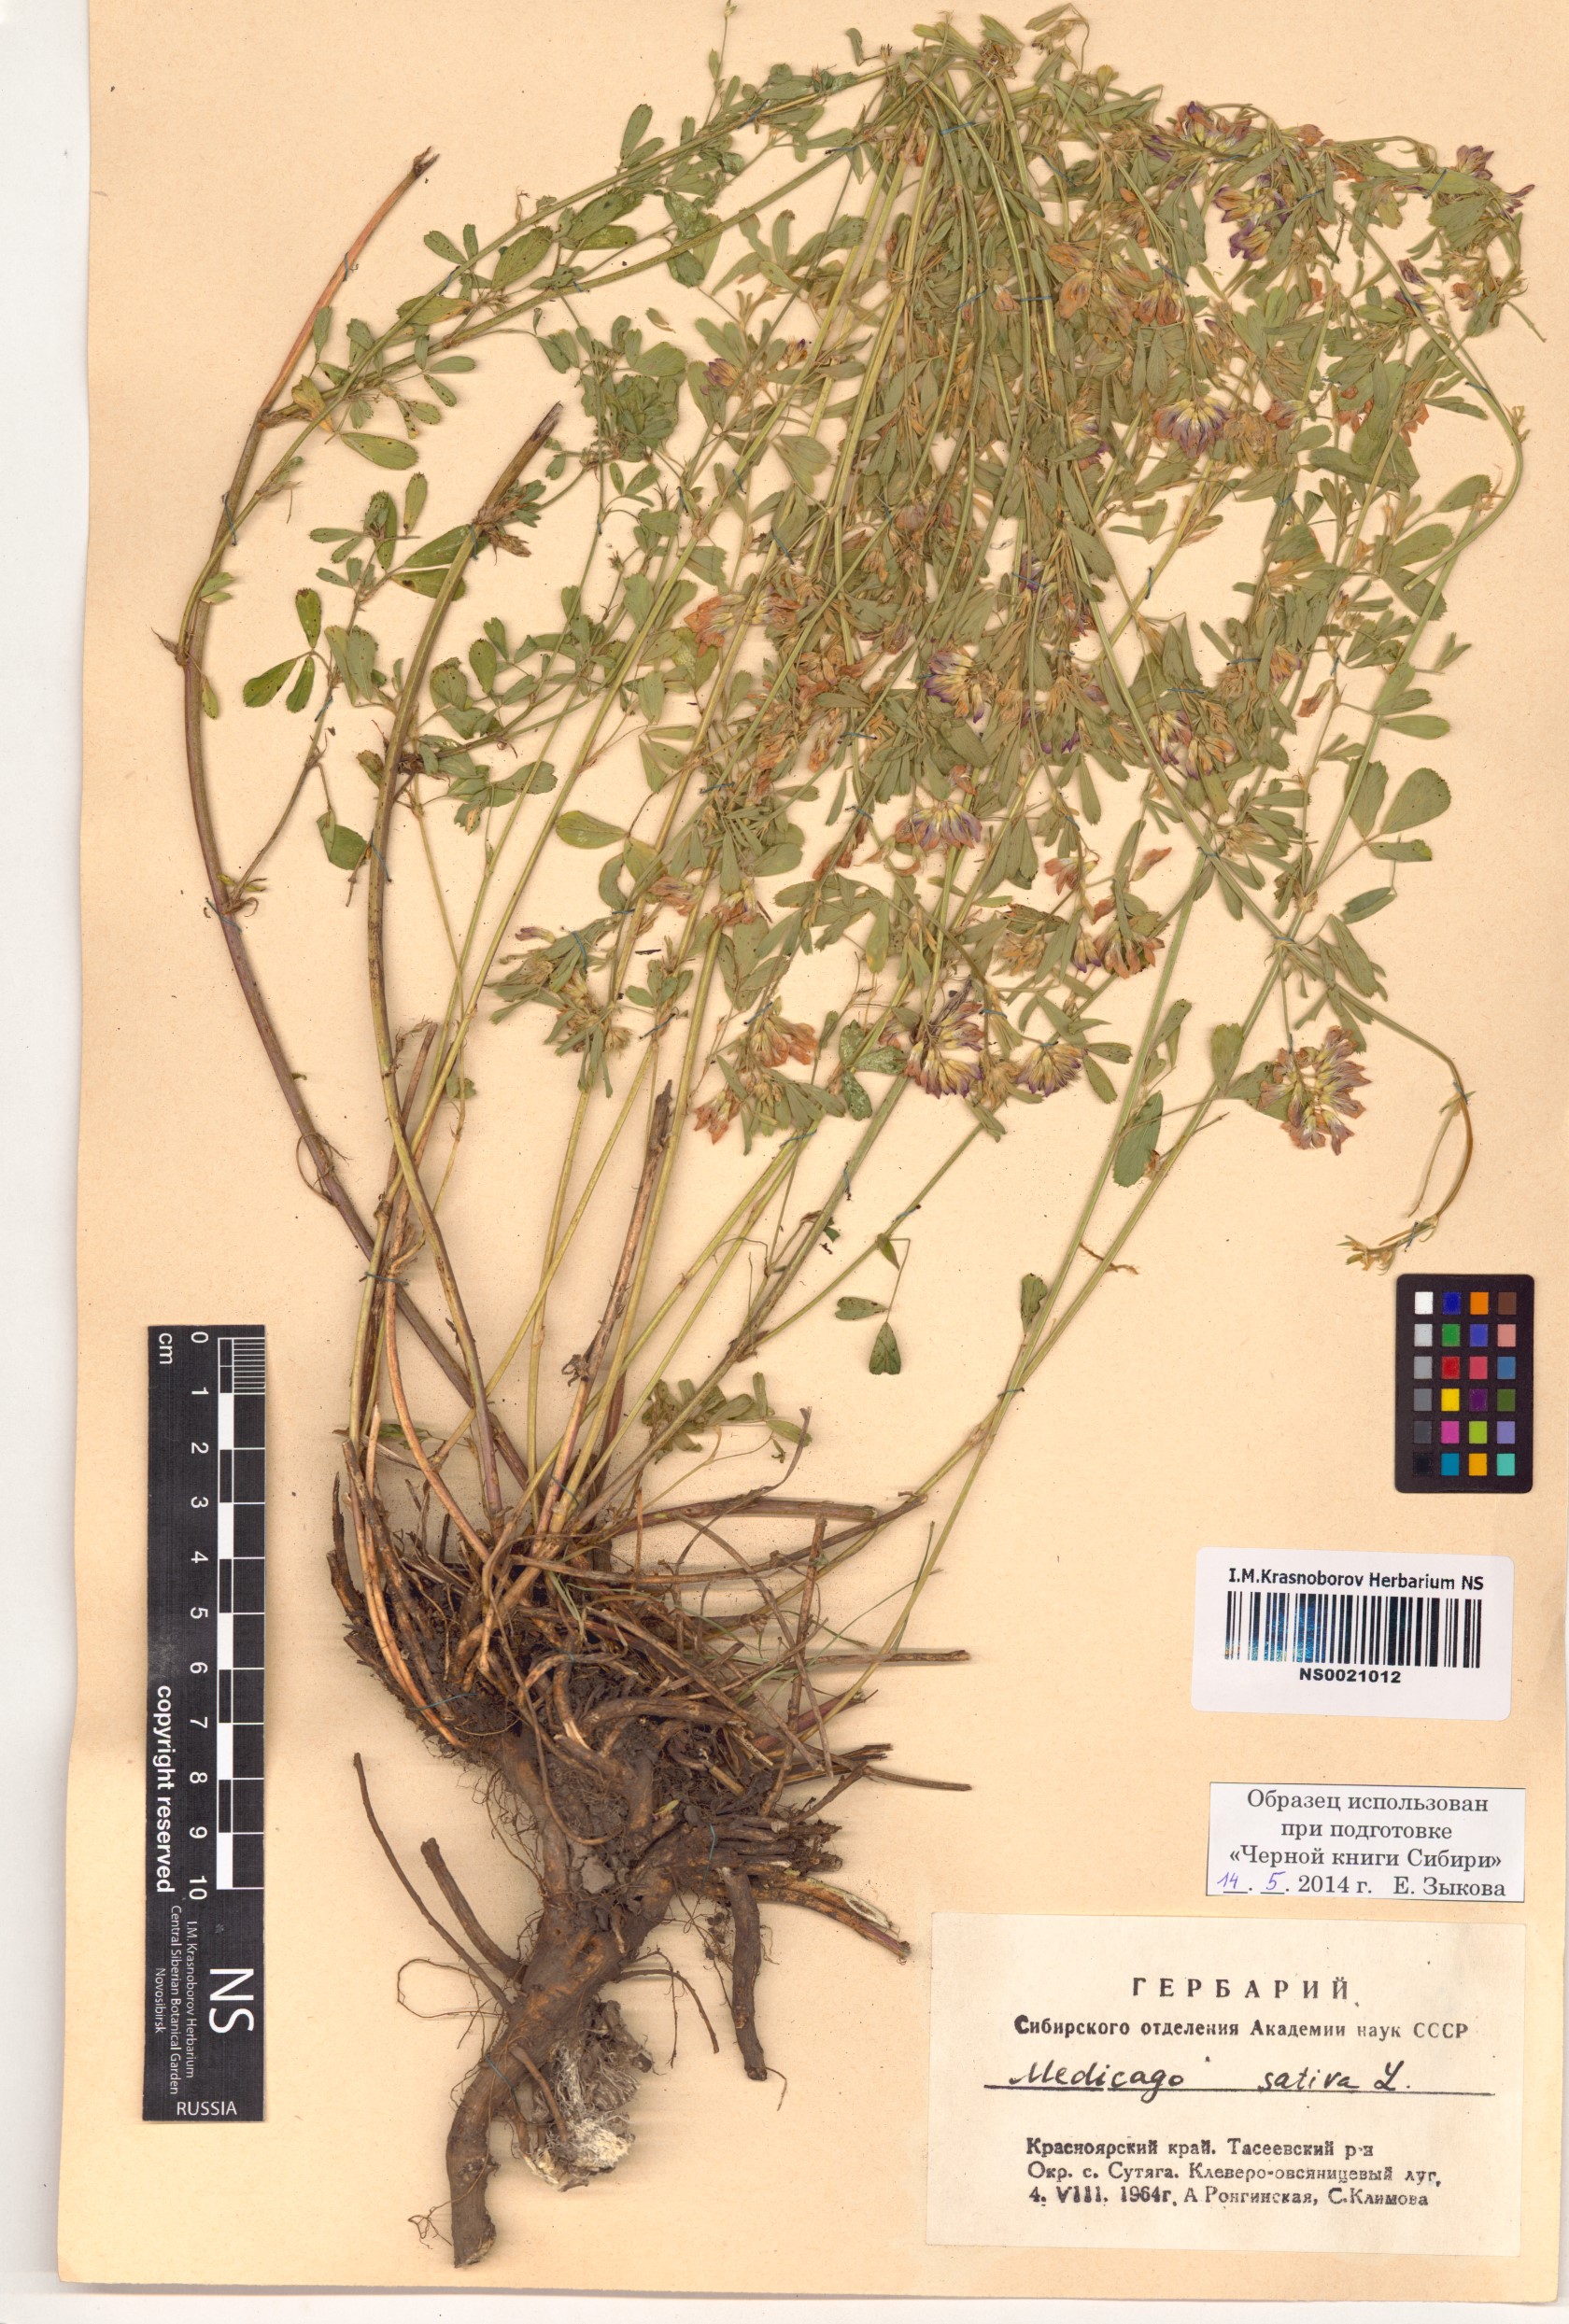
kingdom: Plantae
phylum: Tracheophyta
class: Magnoliopsida
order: Fabales
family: Fabaceae
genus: Medicago
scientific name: Medicago sativa
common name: Alfalfa
